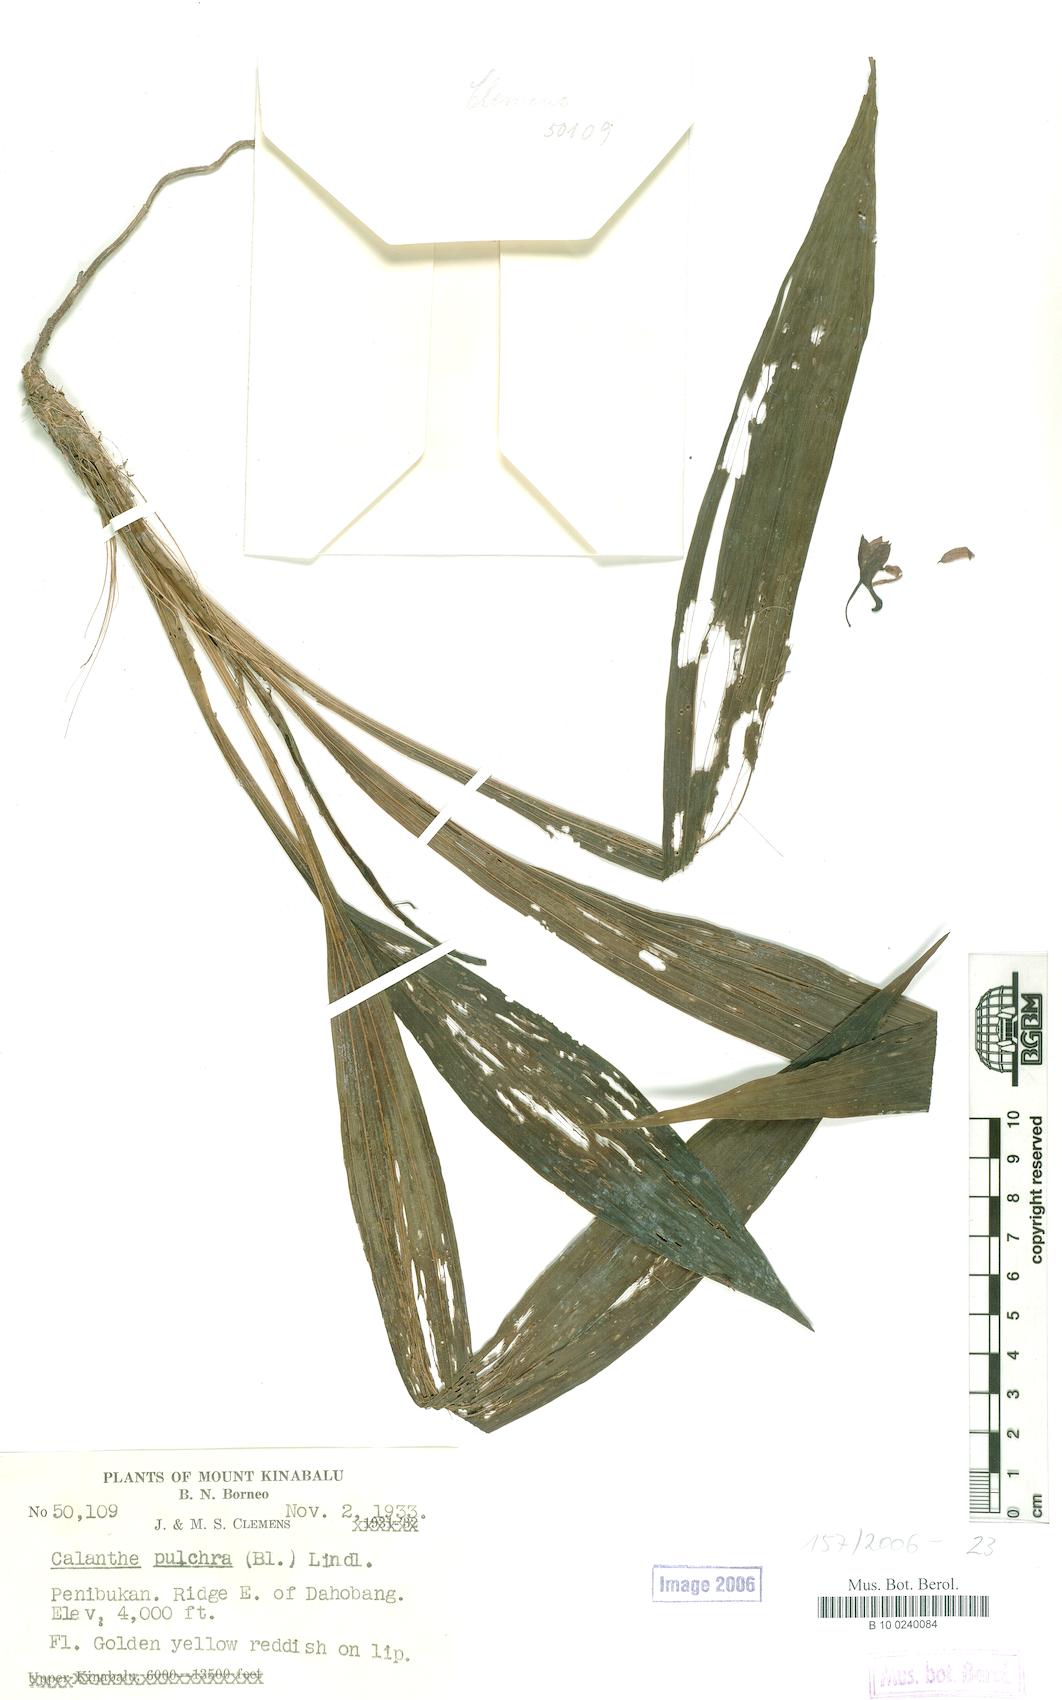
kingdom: Plantae
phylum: Tracheophyta
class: Liliopsida
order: Asparagales
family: Orchidaceae
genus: Calanthe
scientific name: Calanthe pulchra
